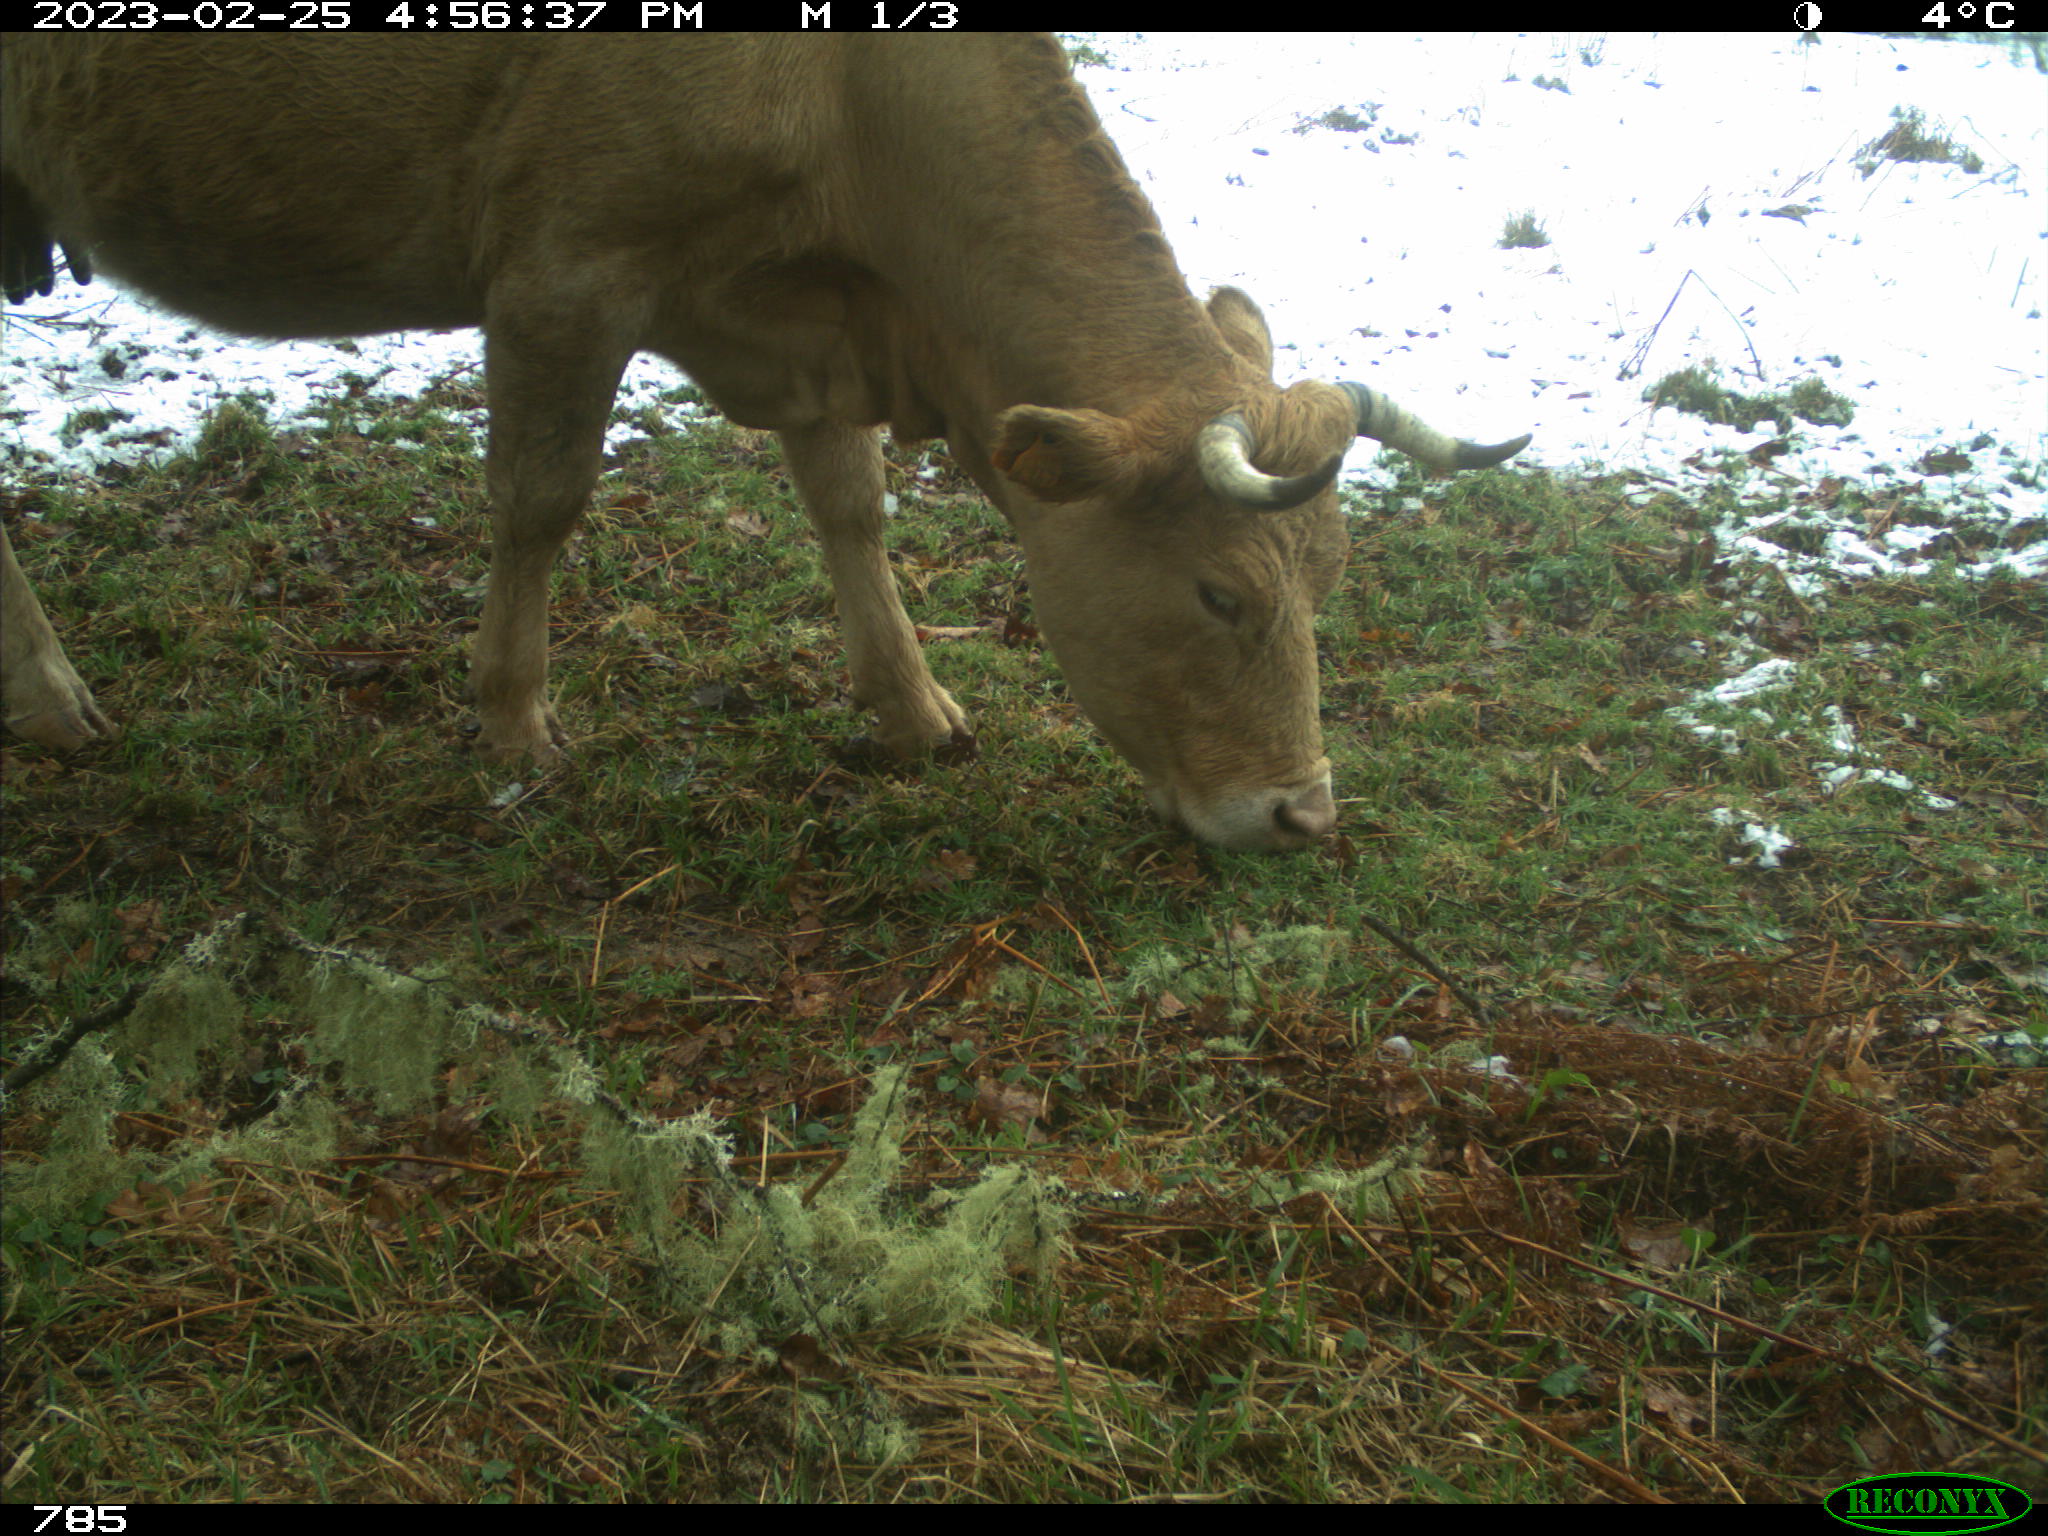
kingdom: Animalia
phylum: Chordata
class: Mammalia
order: Artiodactyla
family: Bovidae
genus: Bos
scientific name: Bos taurus
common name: Domesticated cattle
